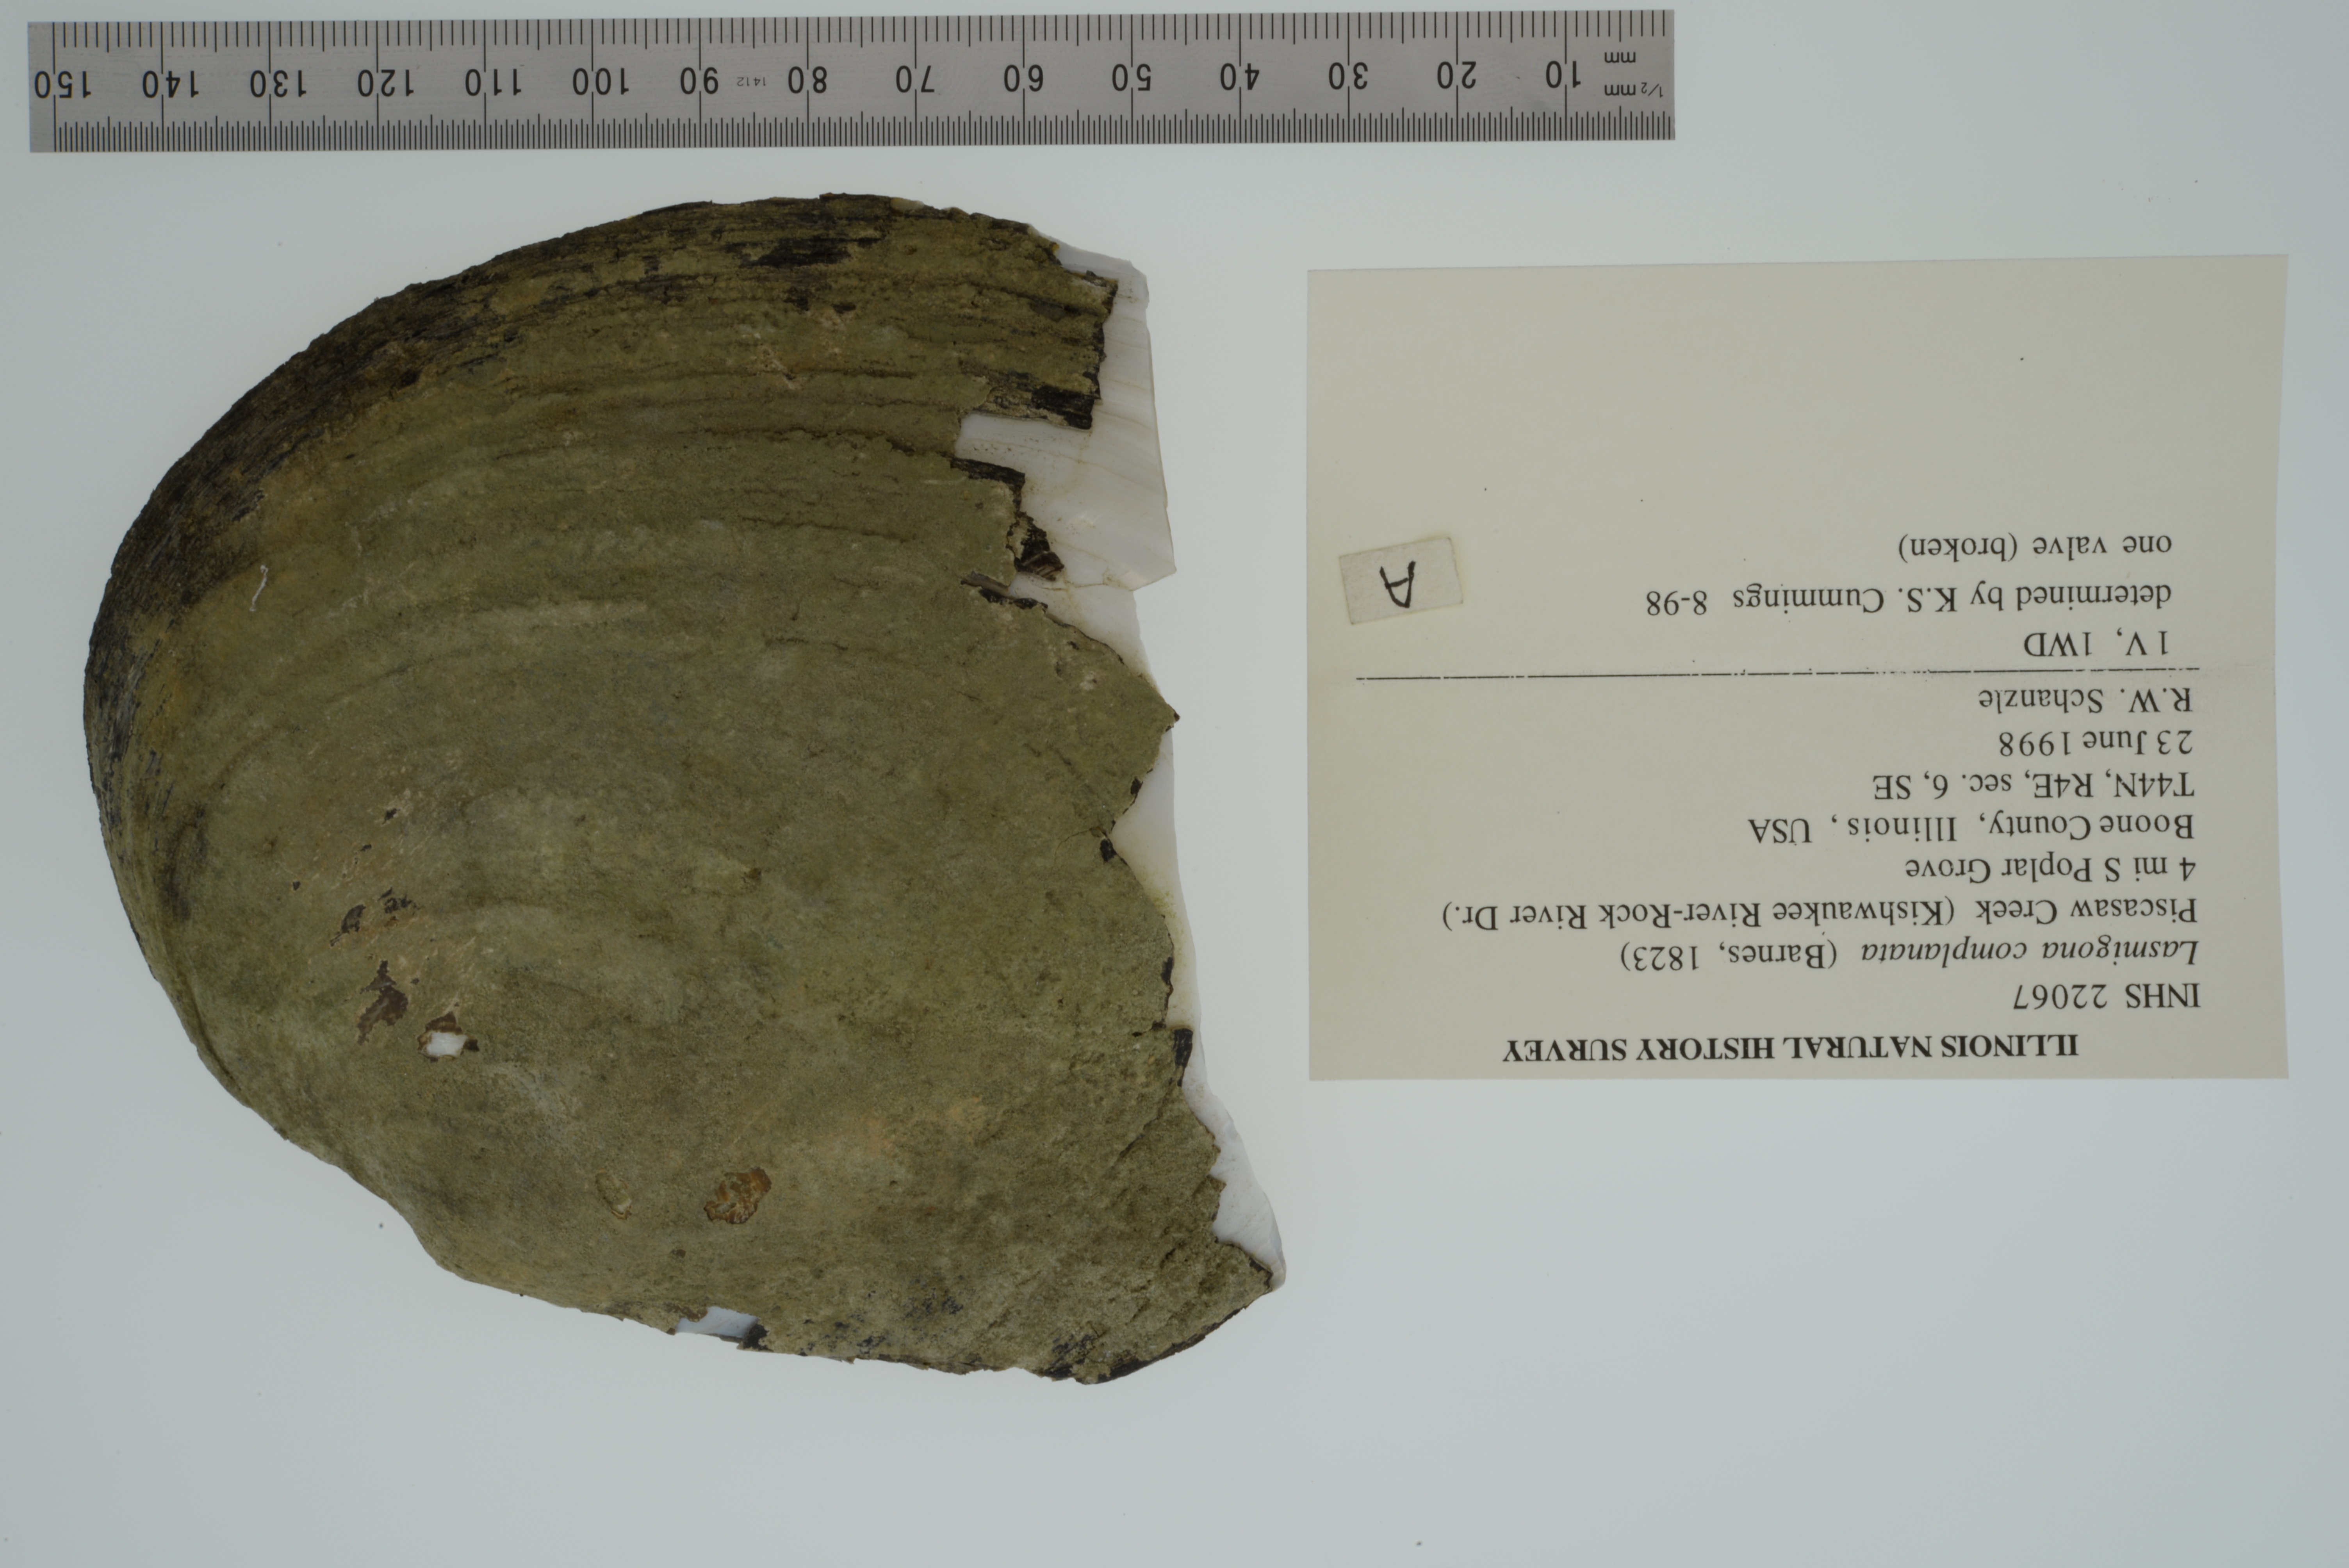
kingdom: Animalia
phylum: Mollusca
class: Bivalvia
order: Unionida
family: Unionidae
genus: Lasmigona
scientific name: Lasmigona complanata
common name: White heelsplitter
